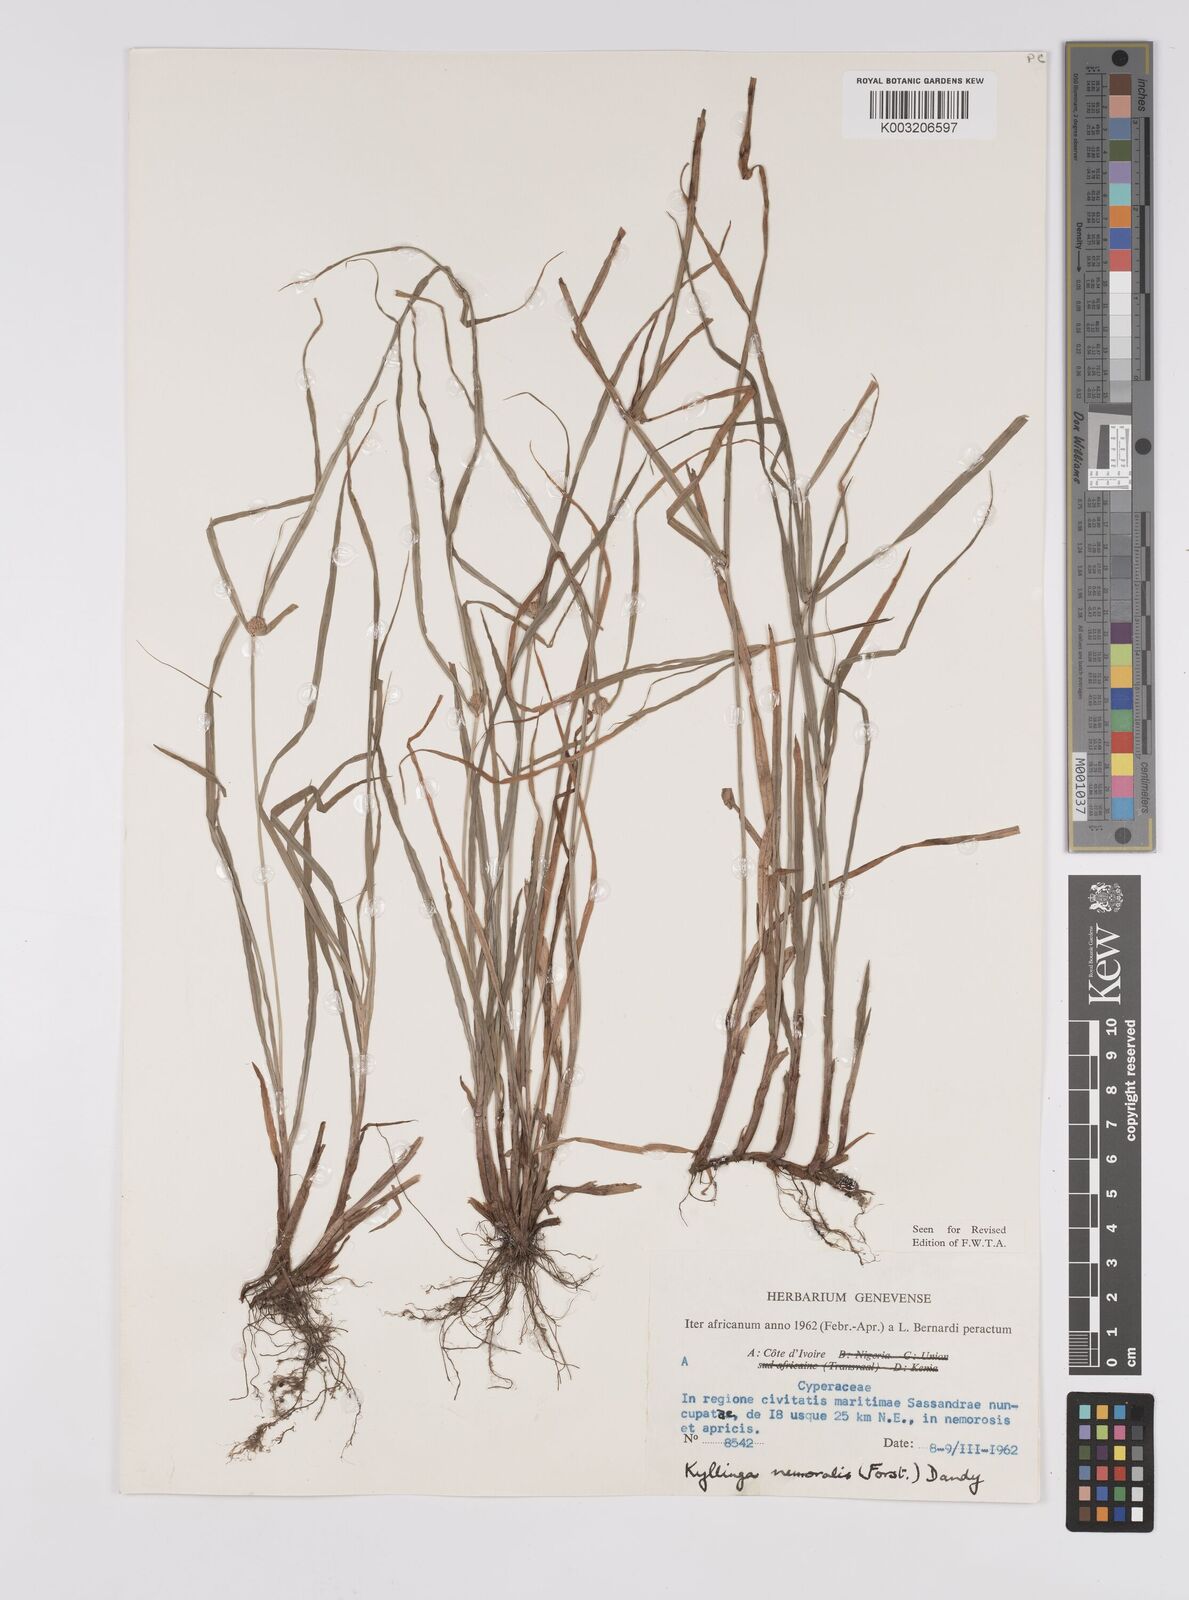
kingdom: Plantae
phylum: Tracheophyta
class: Liliopsida
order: Poales
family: Cyperaceae
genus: Cyperus
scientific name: Cyperus nemoralis
